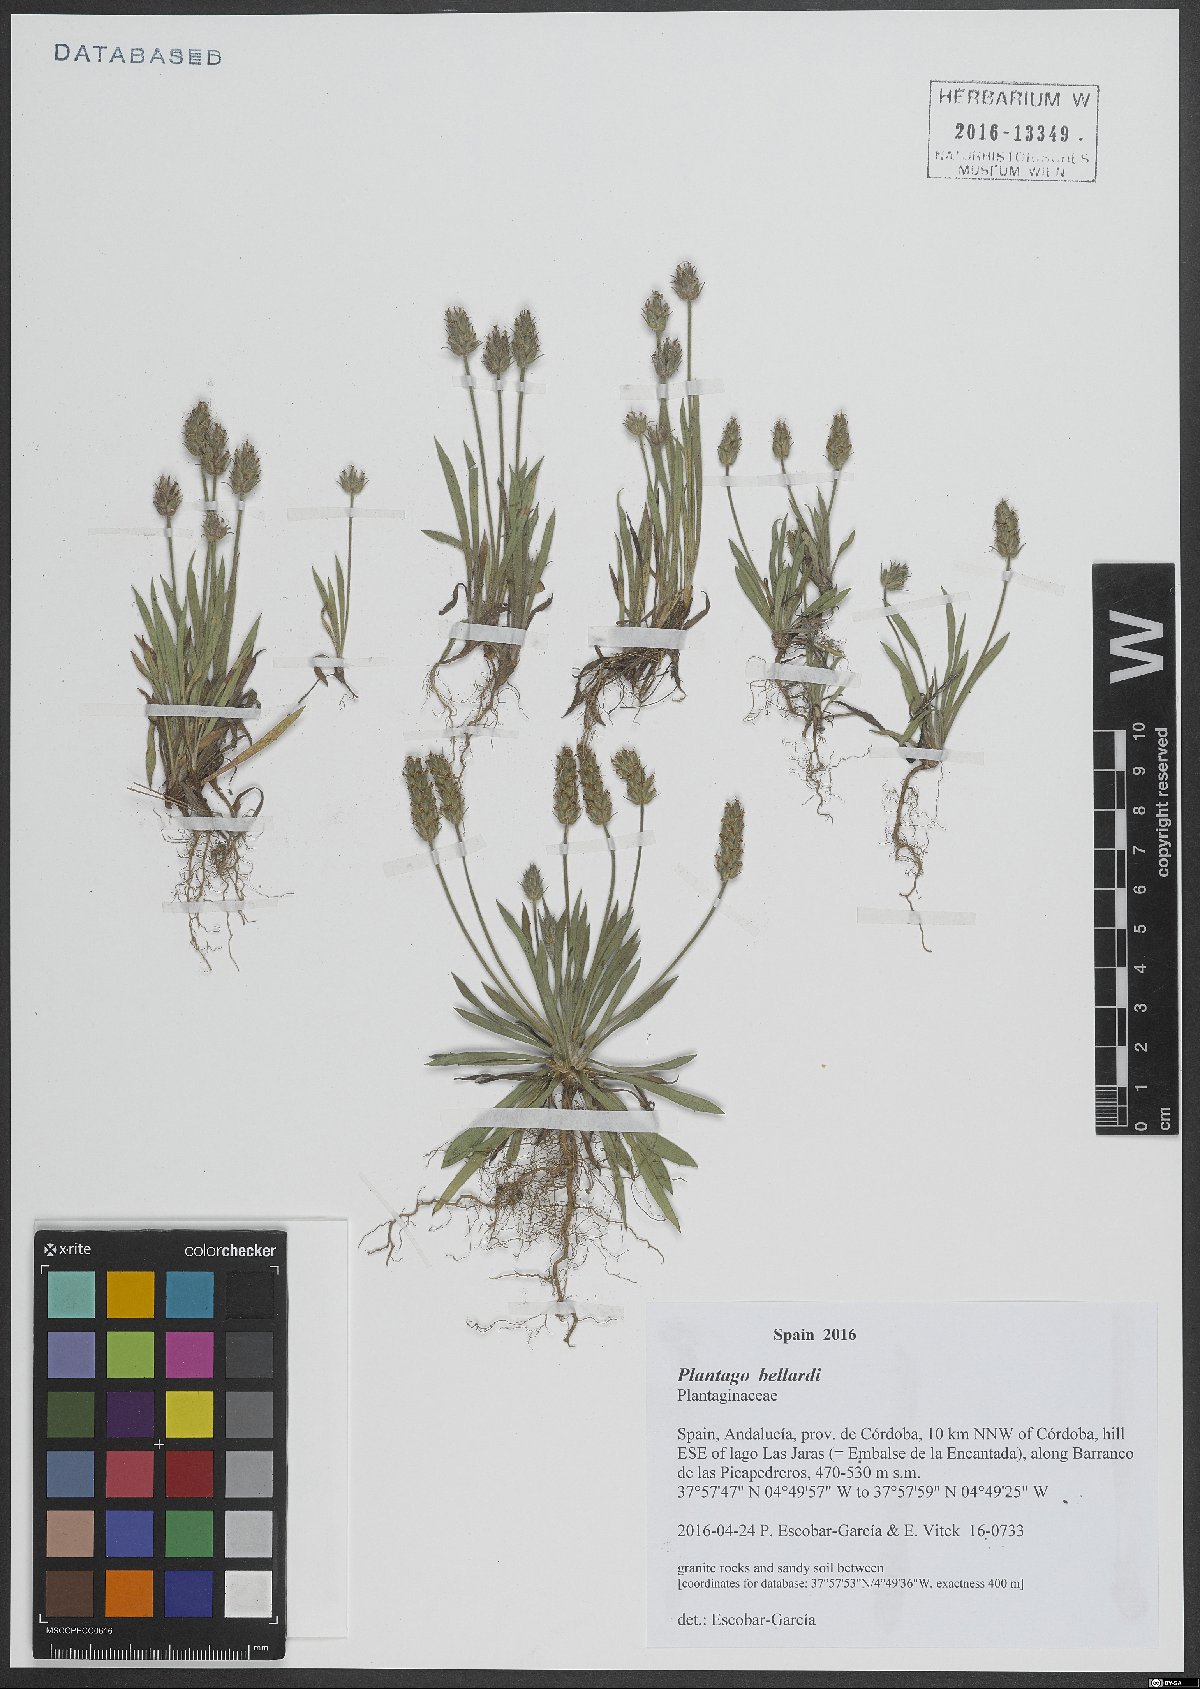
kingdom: Plantae
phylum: Tracheophyta
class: Magnoliopsida
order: Lamiales
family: Plantaginaceae
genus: Plantago
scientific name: Plantago bellardii
